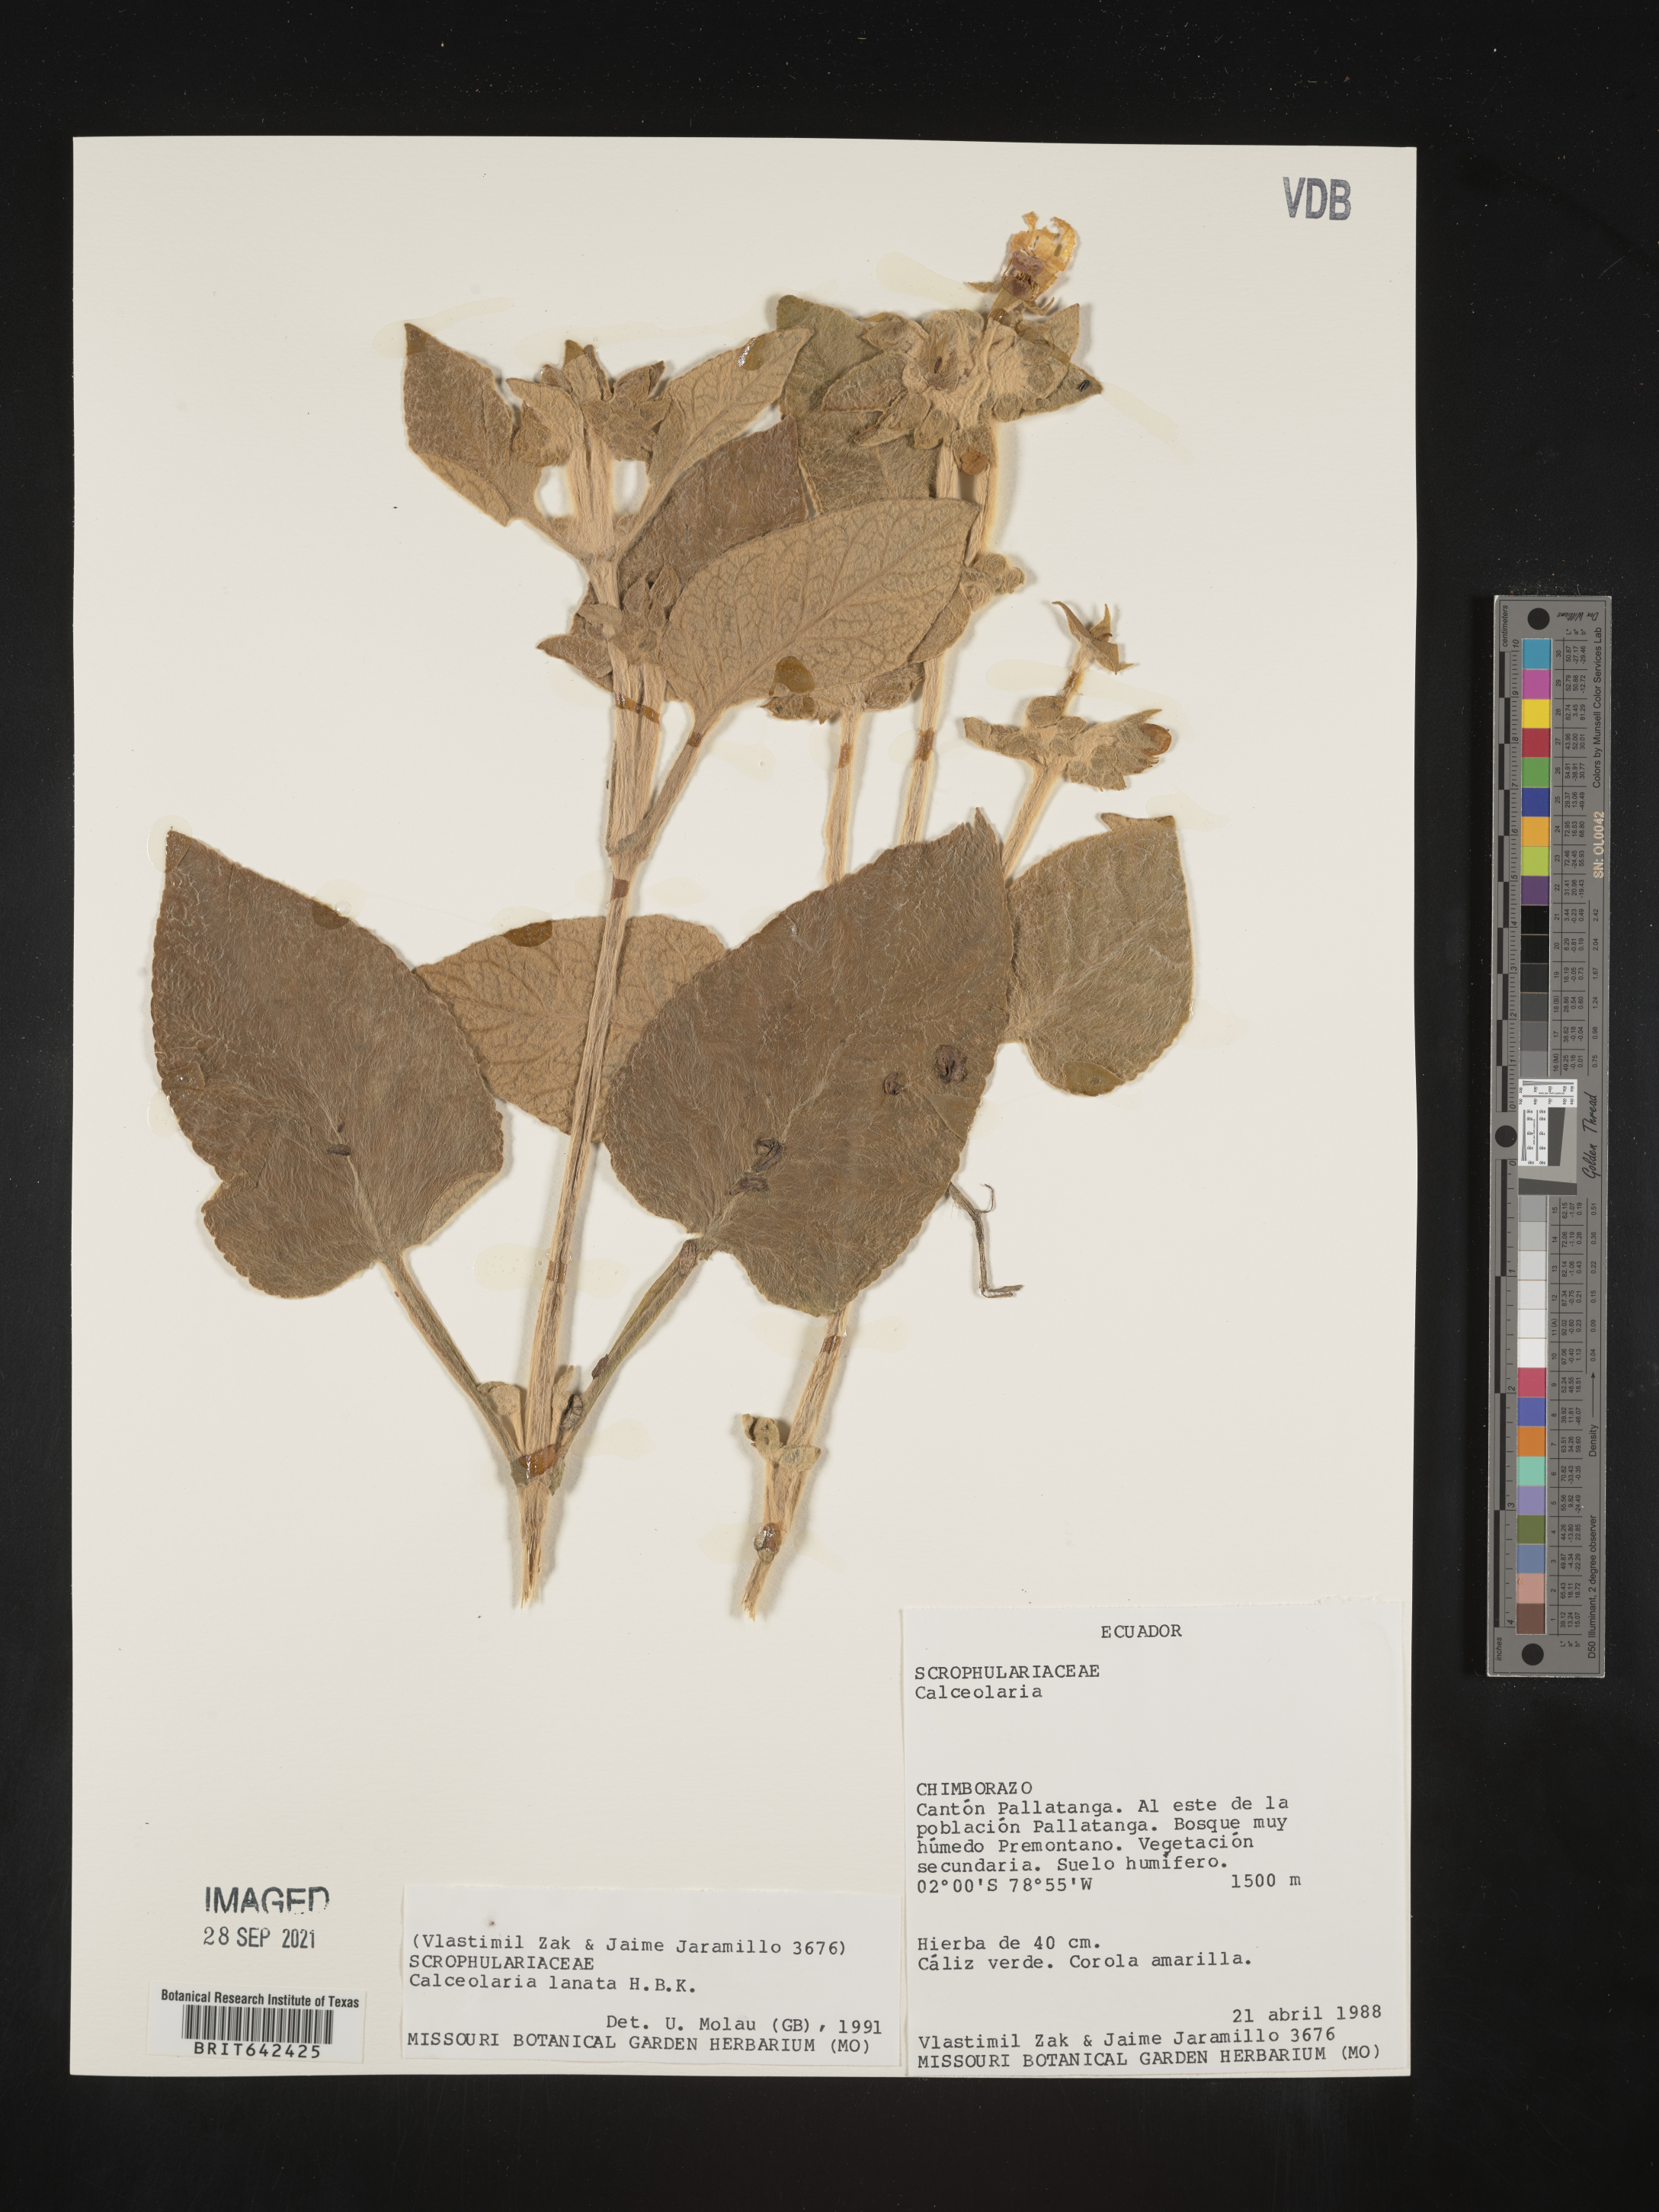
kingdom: Plantae
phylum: Tracheophyta
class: Magnoliopsida
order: Lamiales
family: Calceolariaceae
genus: Calceolaria
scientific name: Calceolaria lanata
